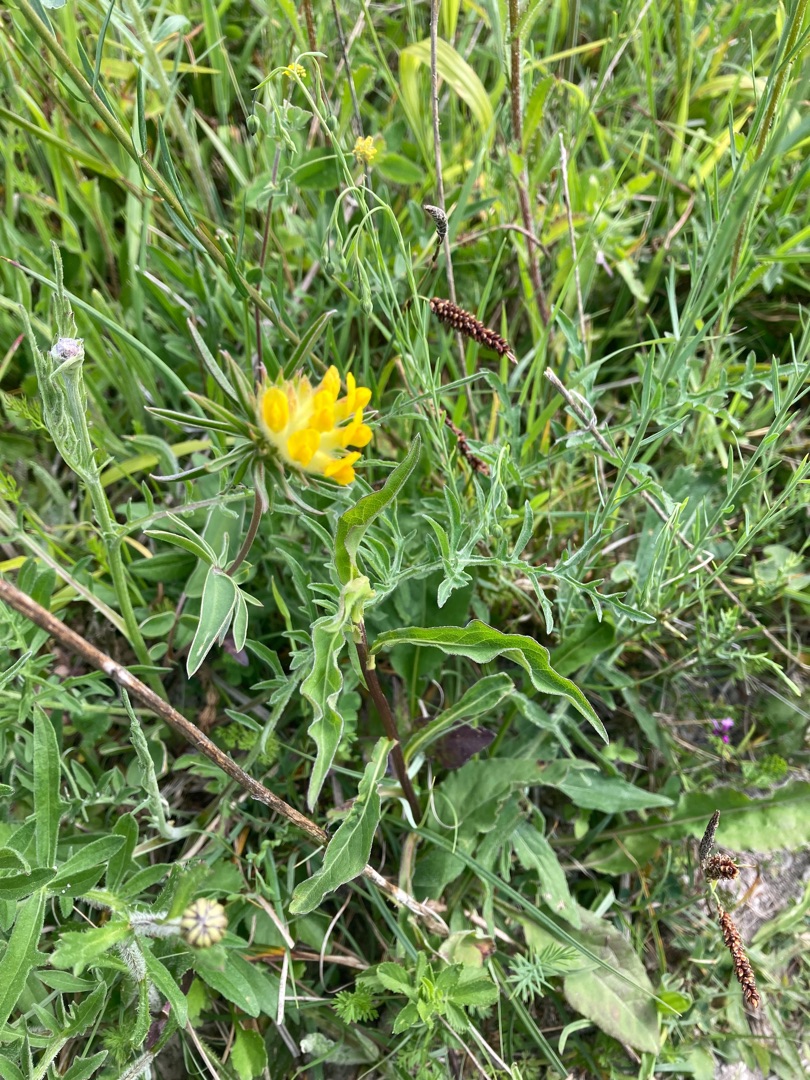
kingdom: Plantae
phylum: Tracheophyta
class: Magnoliopsida
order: Fabales
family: Fabaceae
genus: Anthyllis
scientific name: Anthyllis vulneraria
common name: Rundbælg
